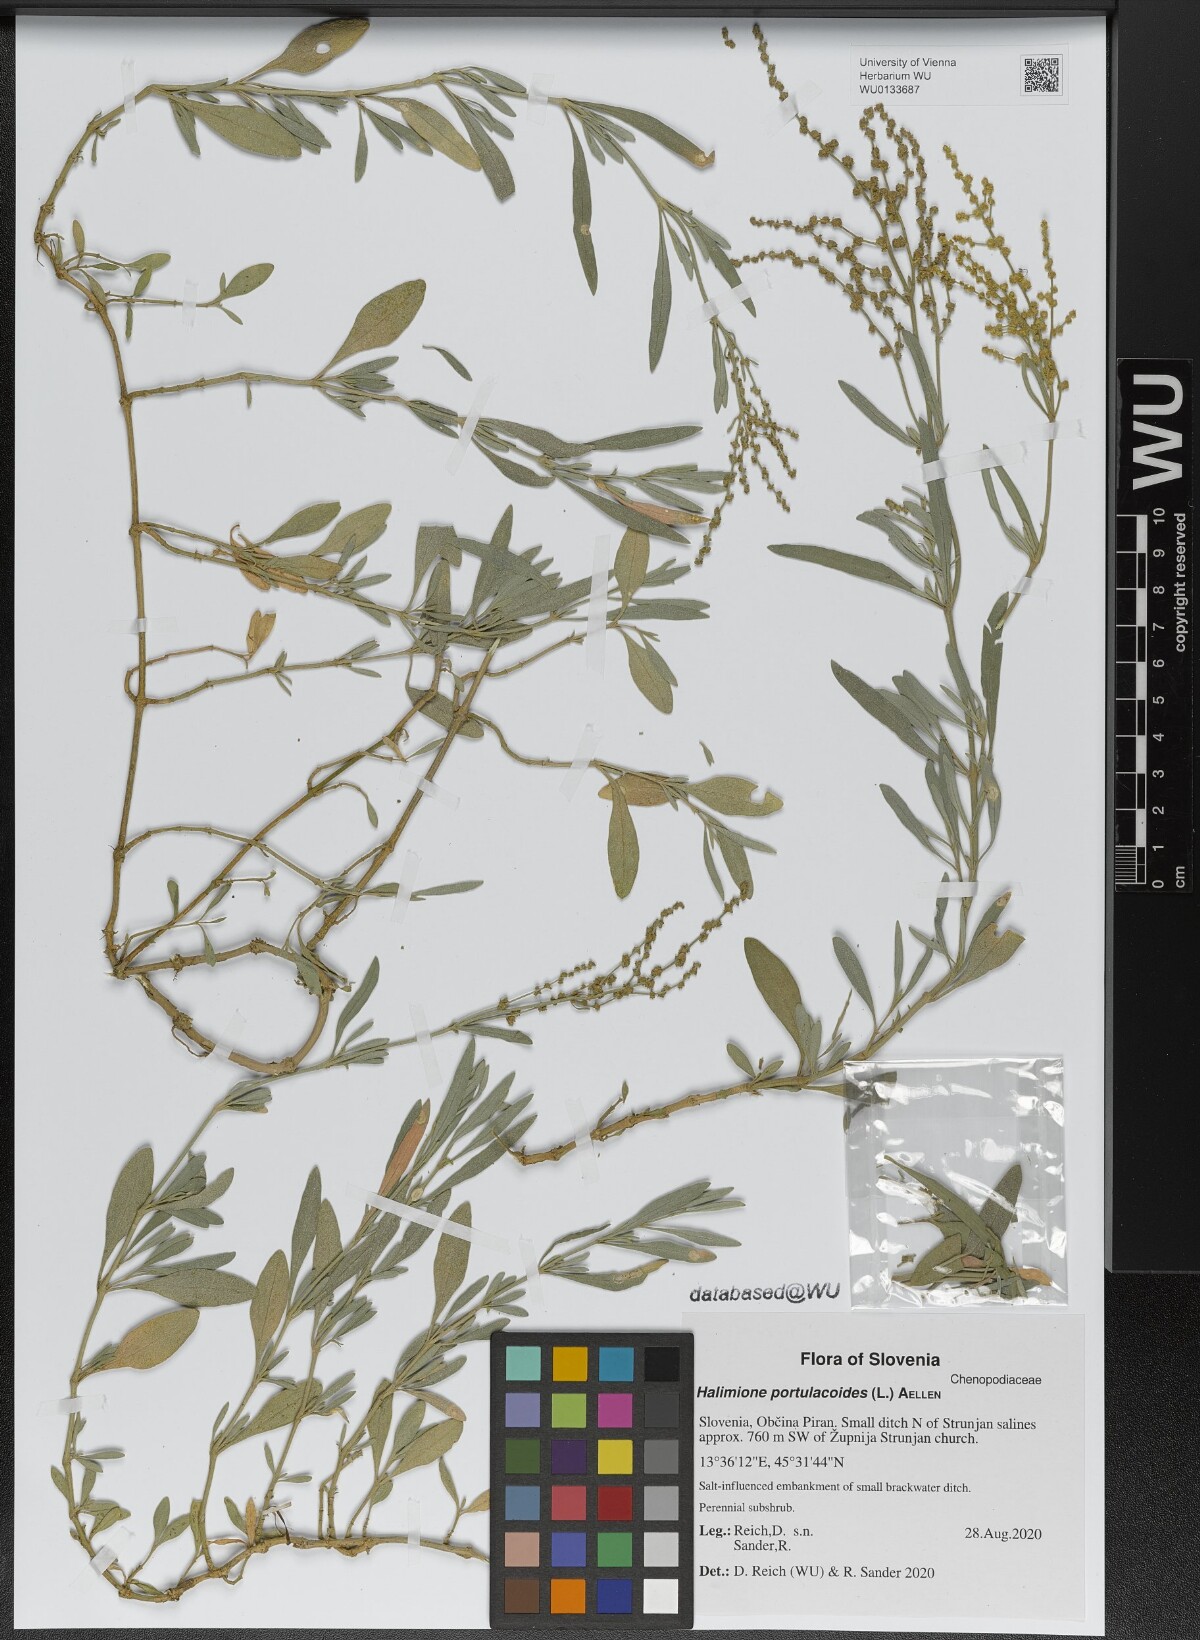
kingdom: Plantae
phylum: Tracheophyta
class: Magnoliopsida
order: Caryophyllales
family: Amaranthaceae
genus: Halimione
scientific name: Halimione portulacoides
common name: Sea-purslane
